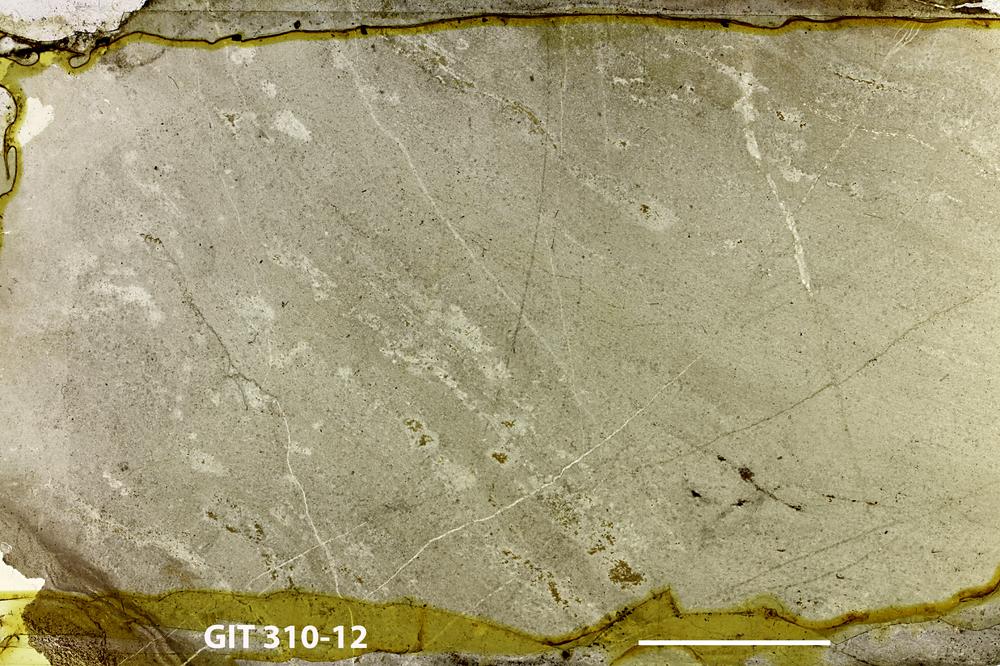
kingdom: Animalia
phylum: Porifera
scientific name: Porifera
